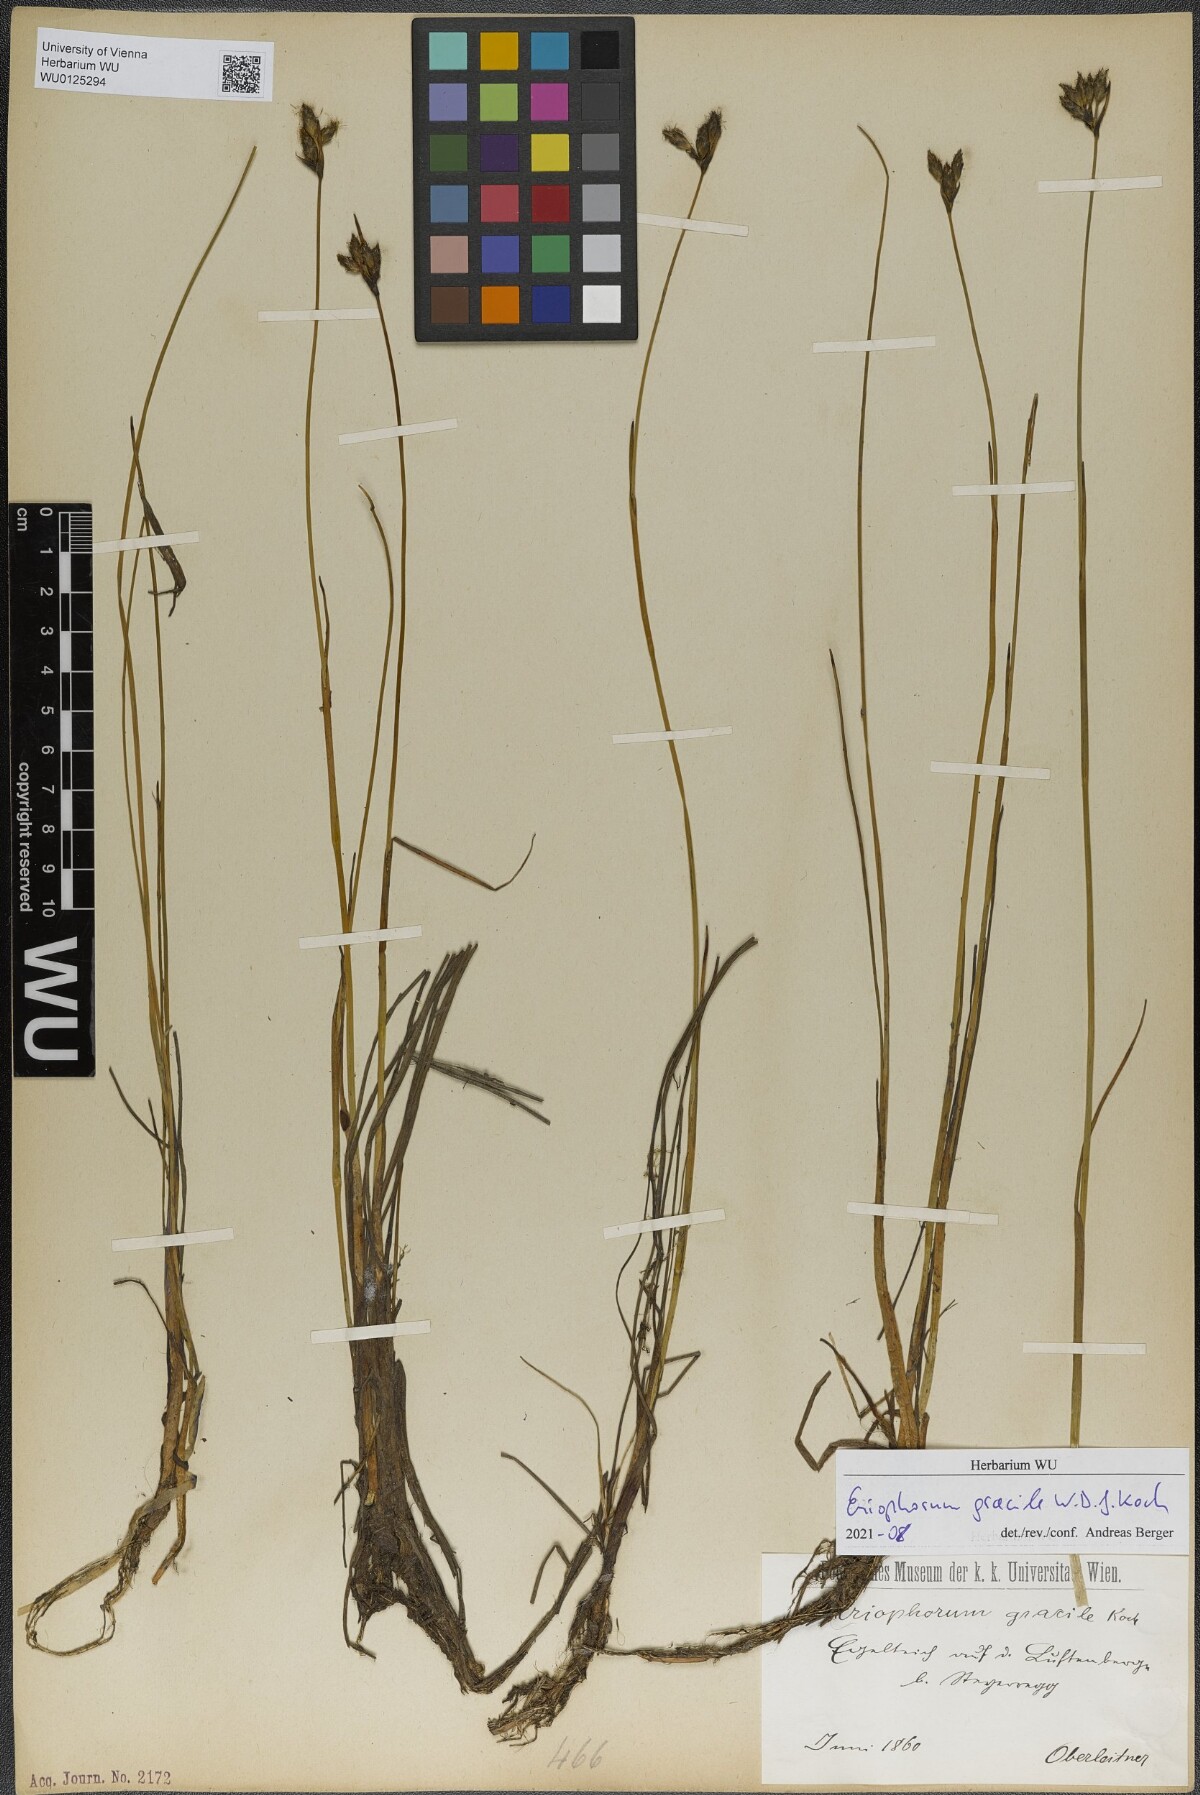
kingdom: Plantae
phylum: Tracheophyta
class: Liliopsida
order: Poales
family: Cyperaceae
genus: Eriophorum
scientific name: Eriophorum gracile
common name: Slender cottongrass
